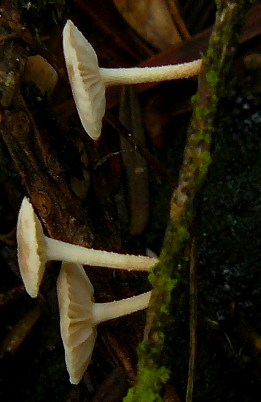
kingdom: Fungi
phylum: Basidiomycota
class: Agaricomycetes
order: Agaricales
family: Omphalotaceae
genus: Collybiopsis
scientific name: Collybiopsis ramealis
